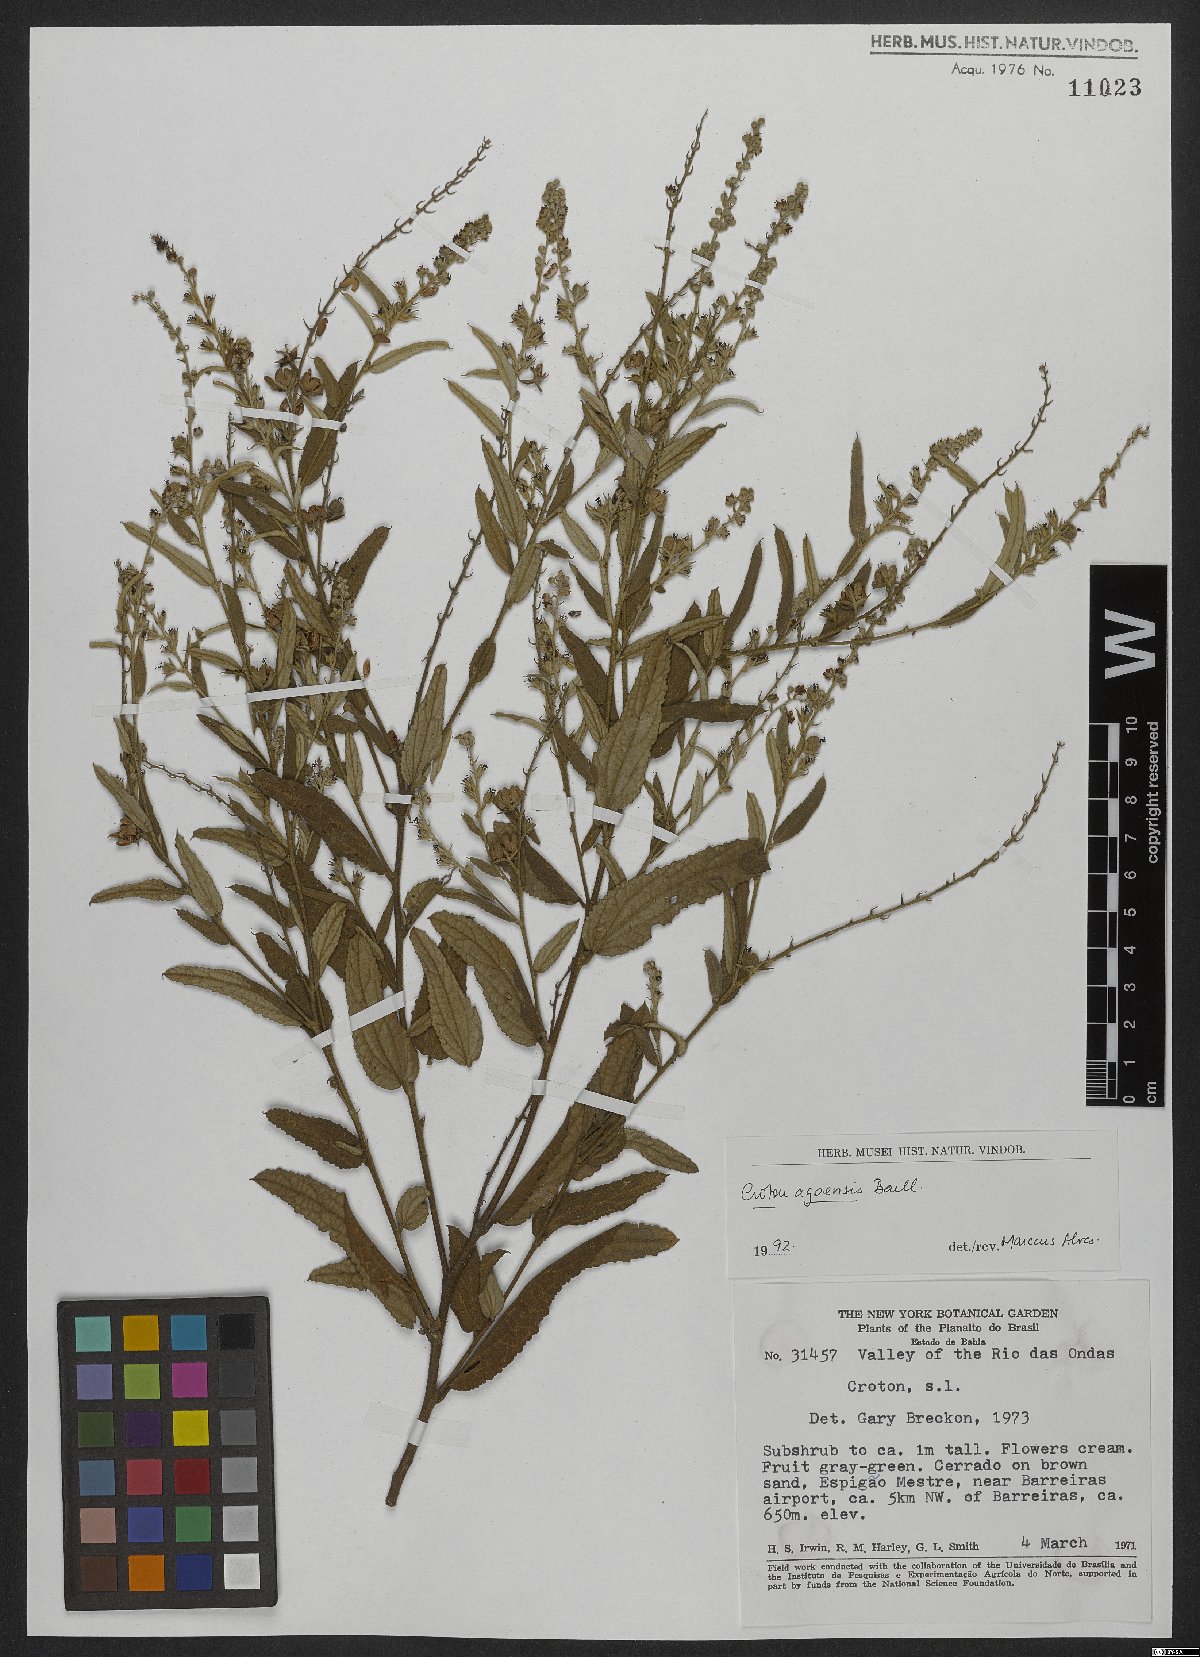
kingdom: Plantae
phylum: Tracheophyta
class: Magnoliopsida
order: Malpighiales
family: Euphorbiaceae
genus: Croton
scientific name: Croton agoensis
